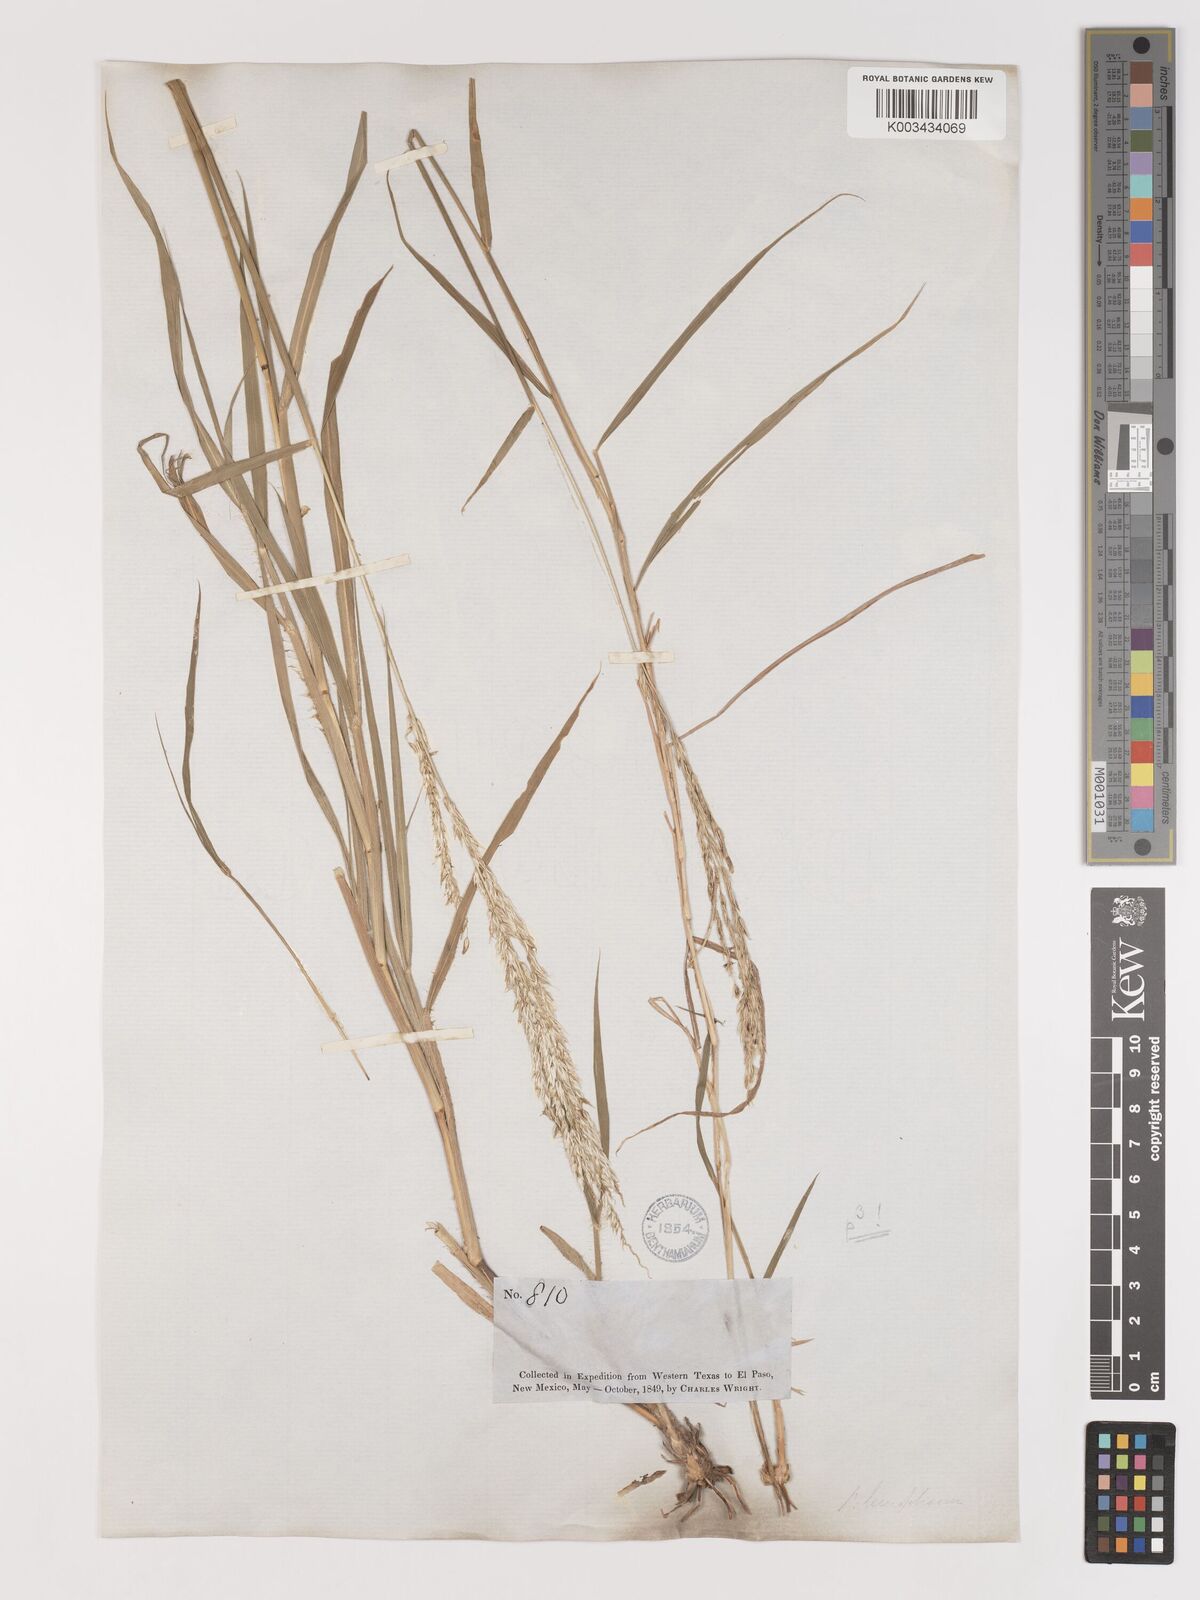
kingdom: Plantae
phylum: Tracheophyta
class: Liliopsida
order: Poales
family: Poaceae
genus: Digitaria
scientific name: Digitaria californica
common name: Arizona cottontop
